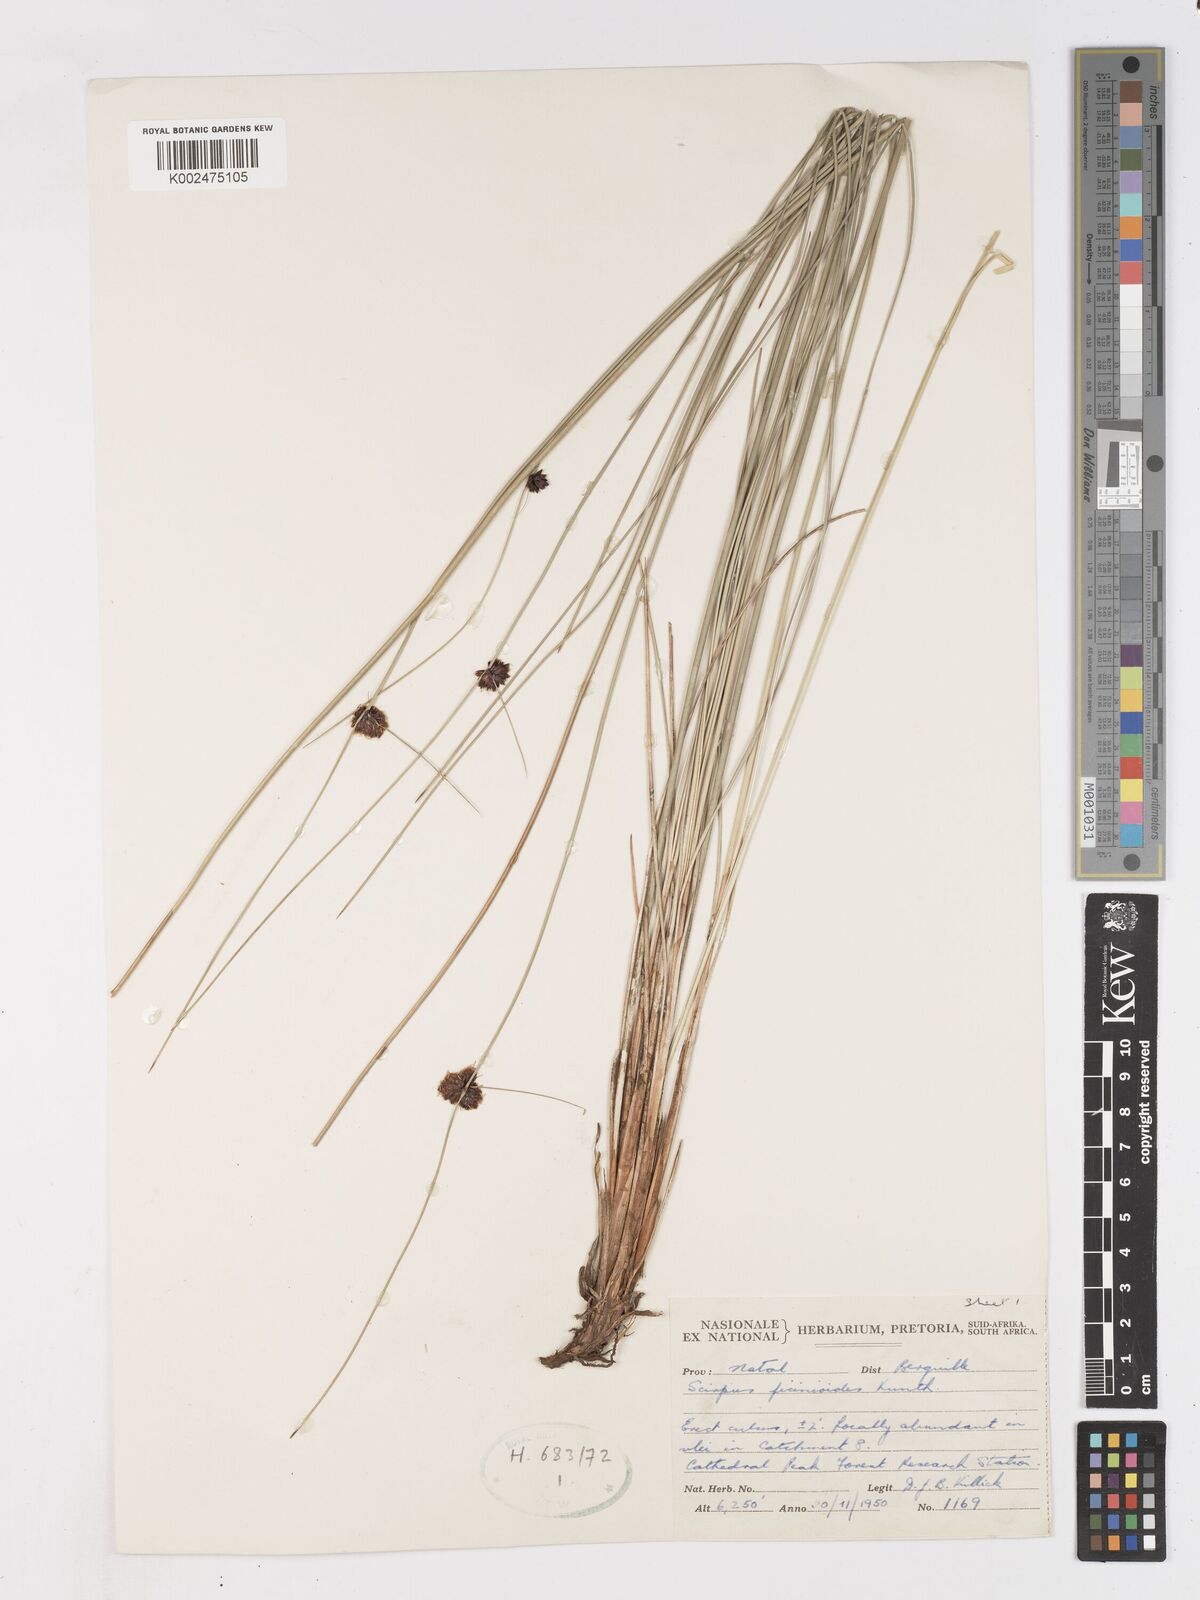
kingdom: Plantae
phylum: Tracheophyta
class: Liliopsida
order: Poales
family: Cyperaceae
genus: Ficinia
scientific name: Ficinia filiformis
